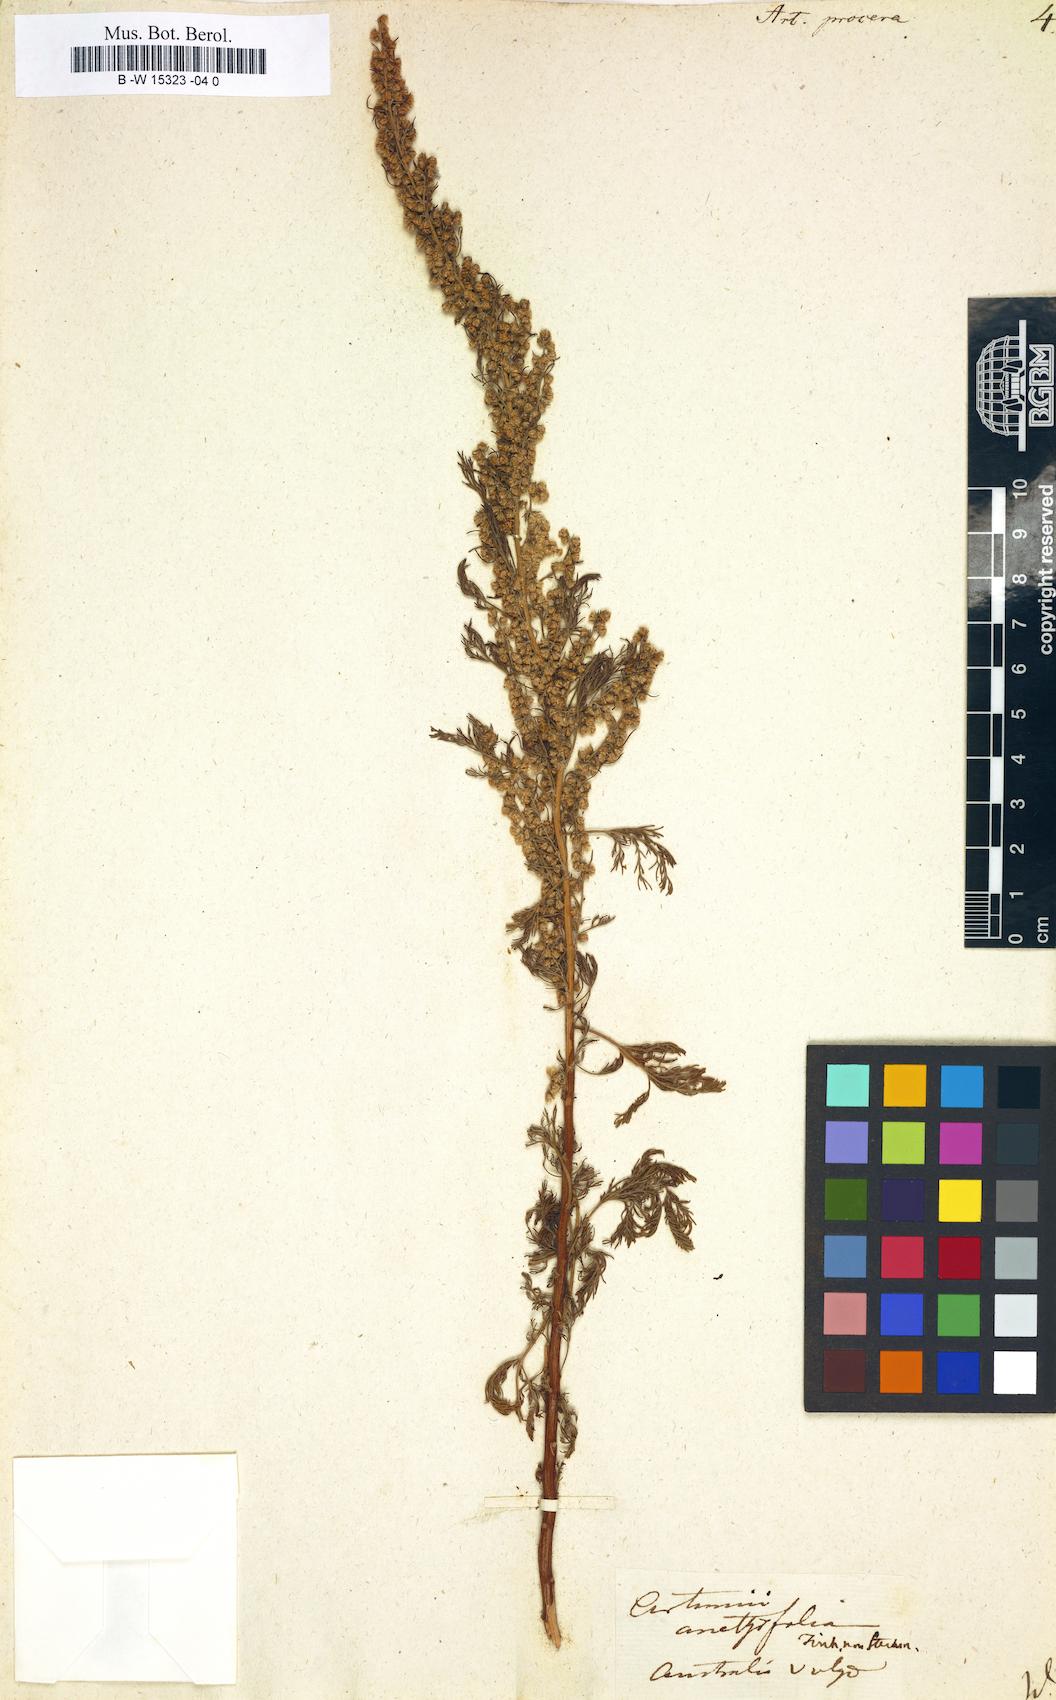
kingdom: Plantae
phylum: Tracheophyta
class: Magnoliopsida
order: Asterales
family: Asteraceae
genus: Artemisia
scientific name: Artemisia abrotanum
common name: Southernwood
